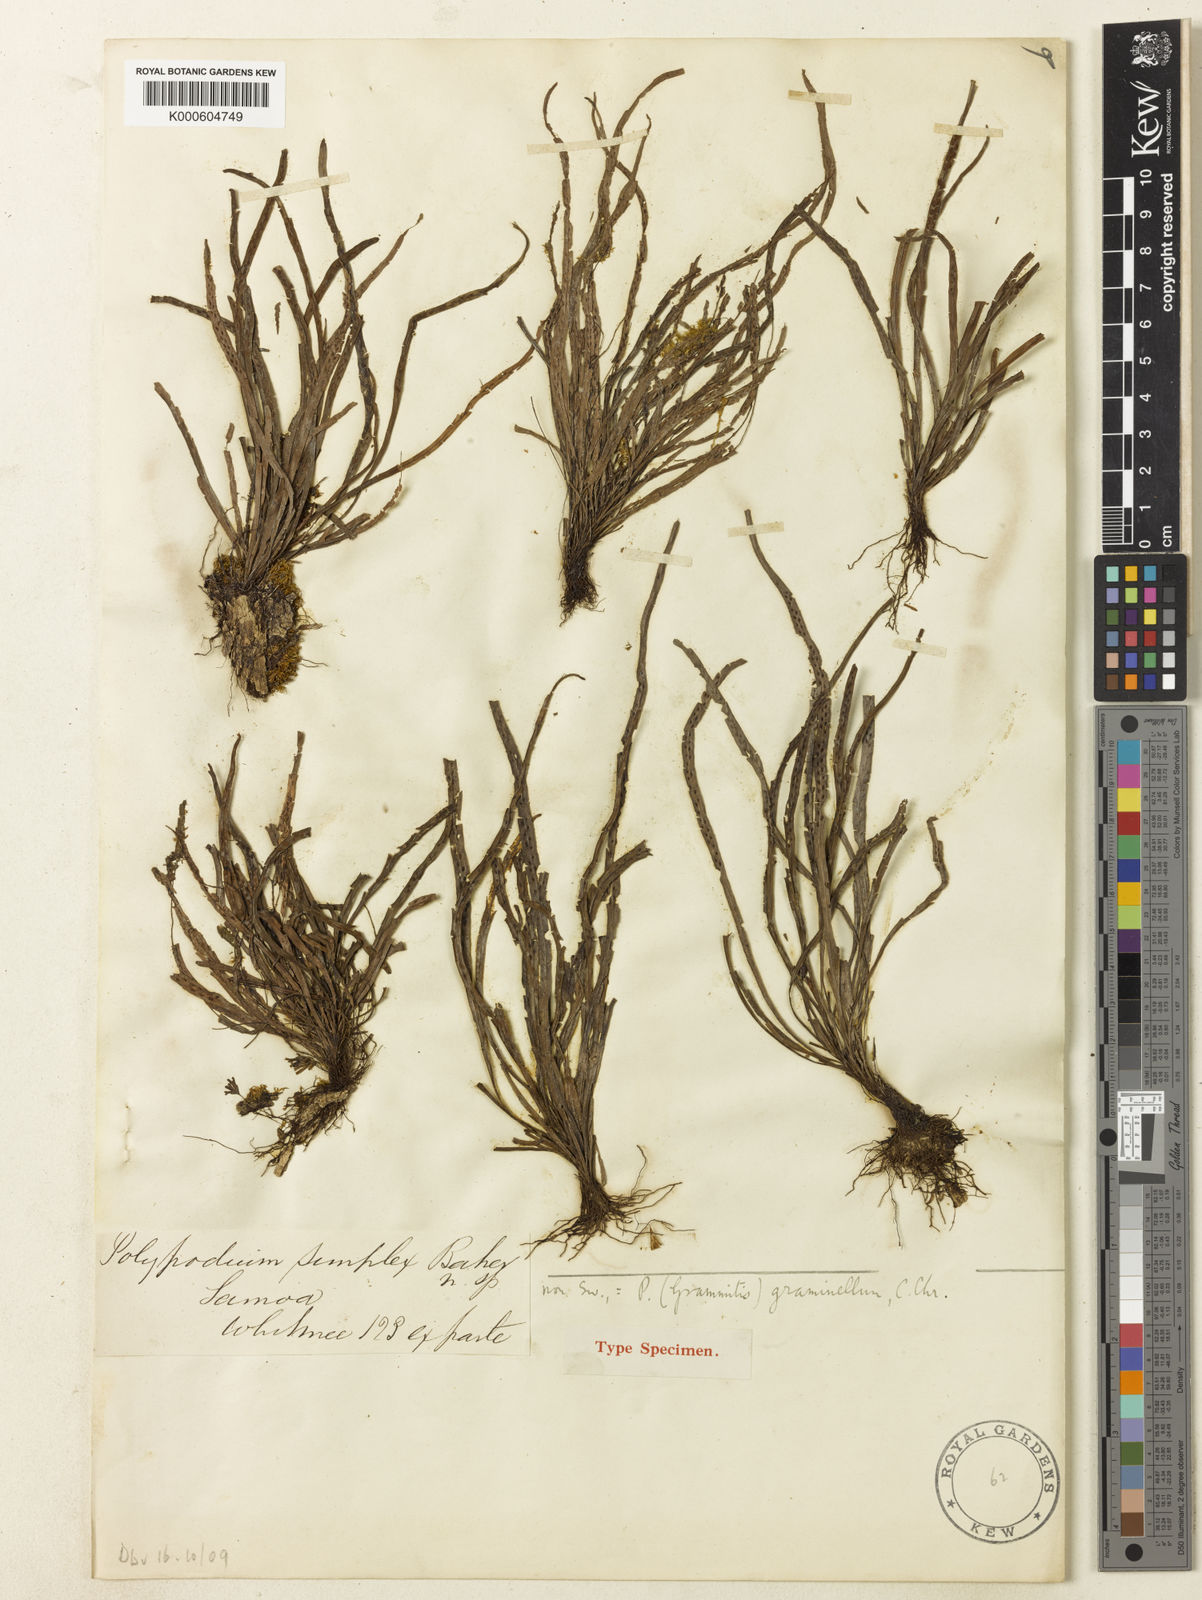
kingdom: Plantae
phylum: Tracheophyta
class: Polypodiopsida
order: Polypodiales
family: Polypodiaceae
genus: Grammitis
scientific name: Grammitis
